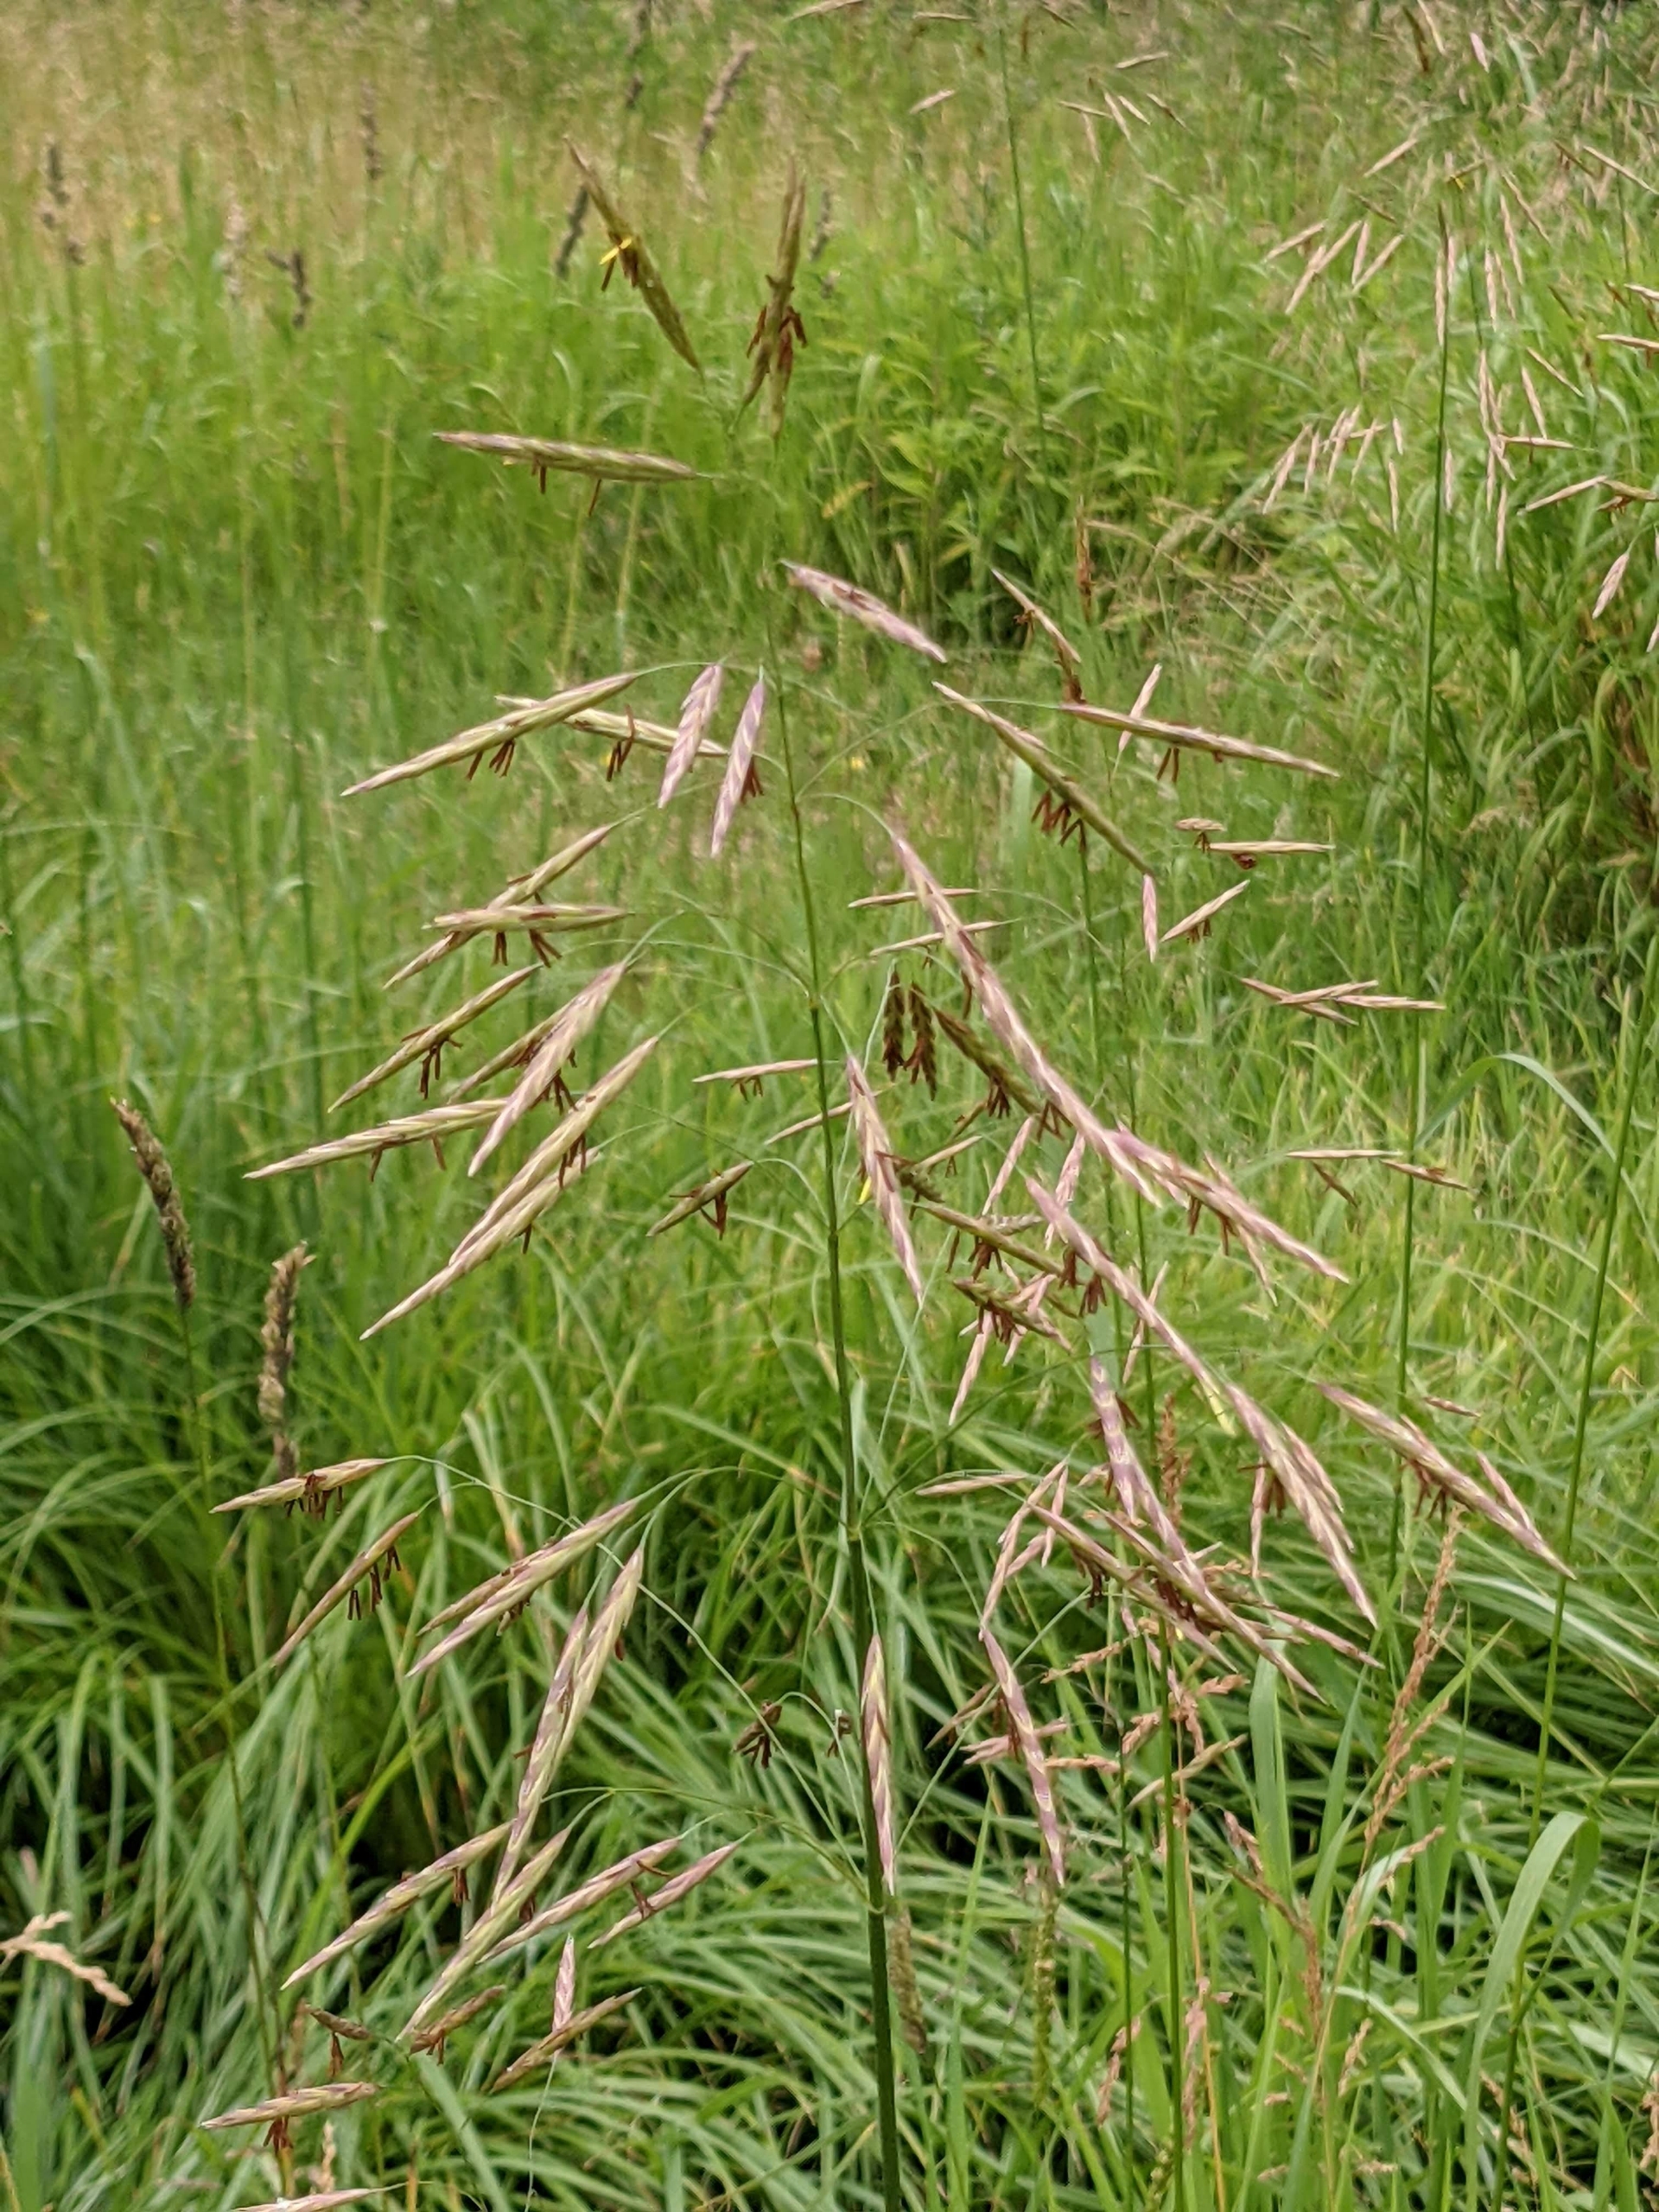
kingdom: Plantae
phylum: Tracheophyta
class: Liliopsida
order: Poales
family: Poaceae
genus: Bromus
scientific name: Bromus inermis
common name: Stakløs hejre
